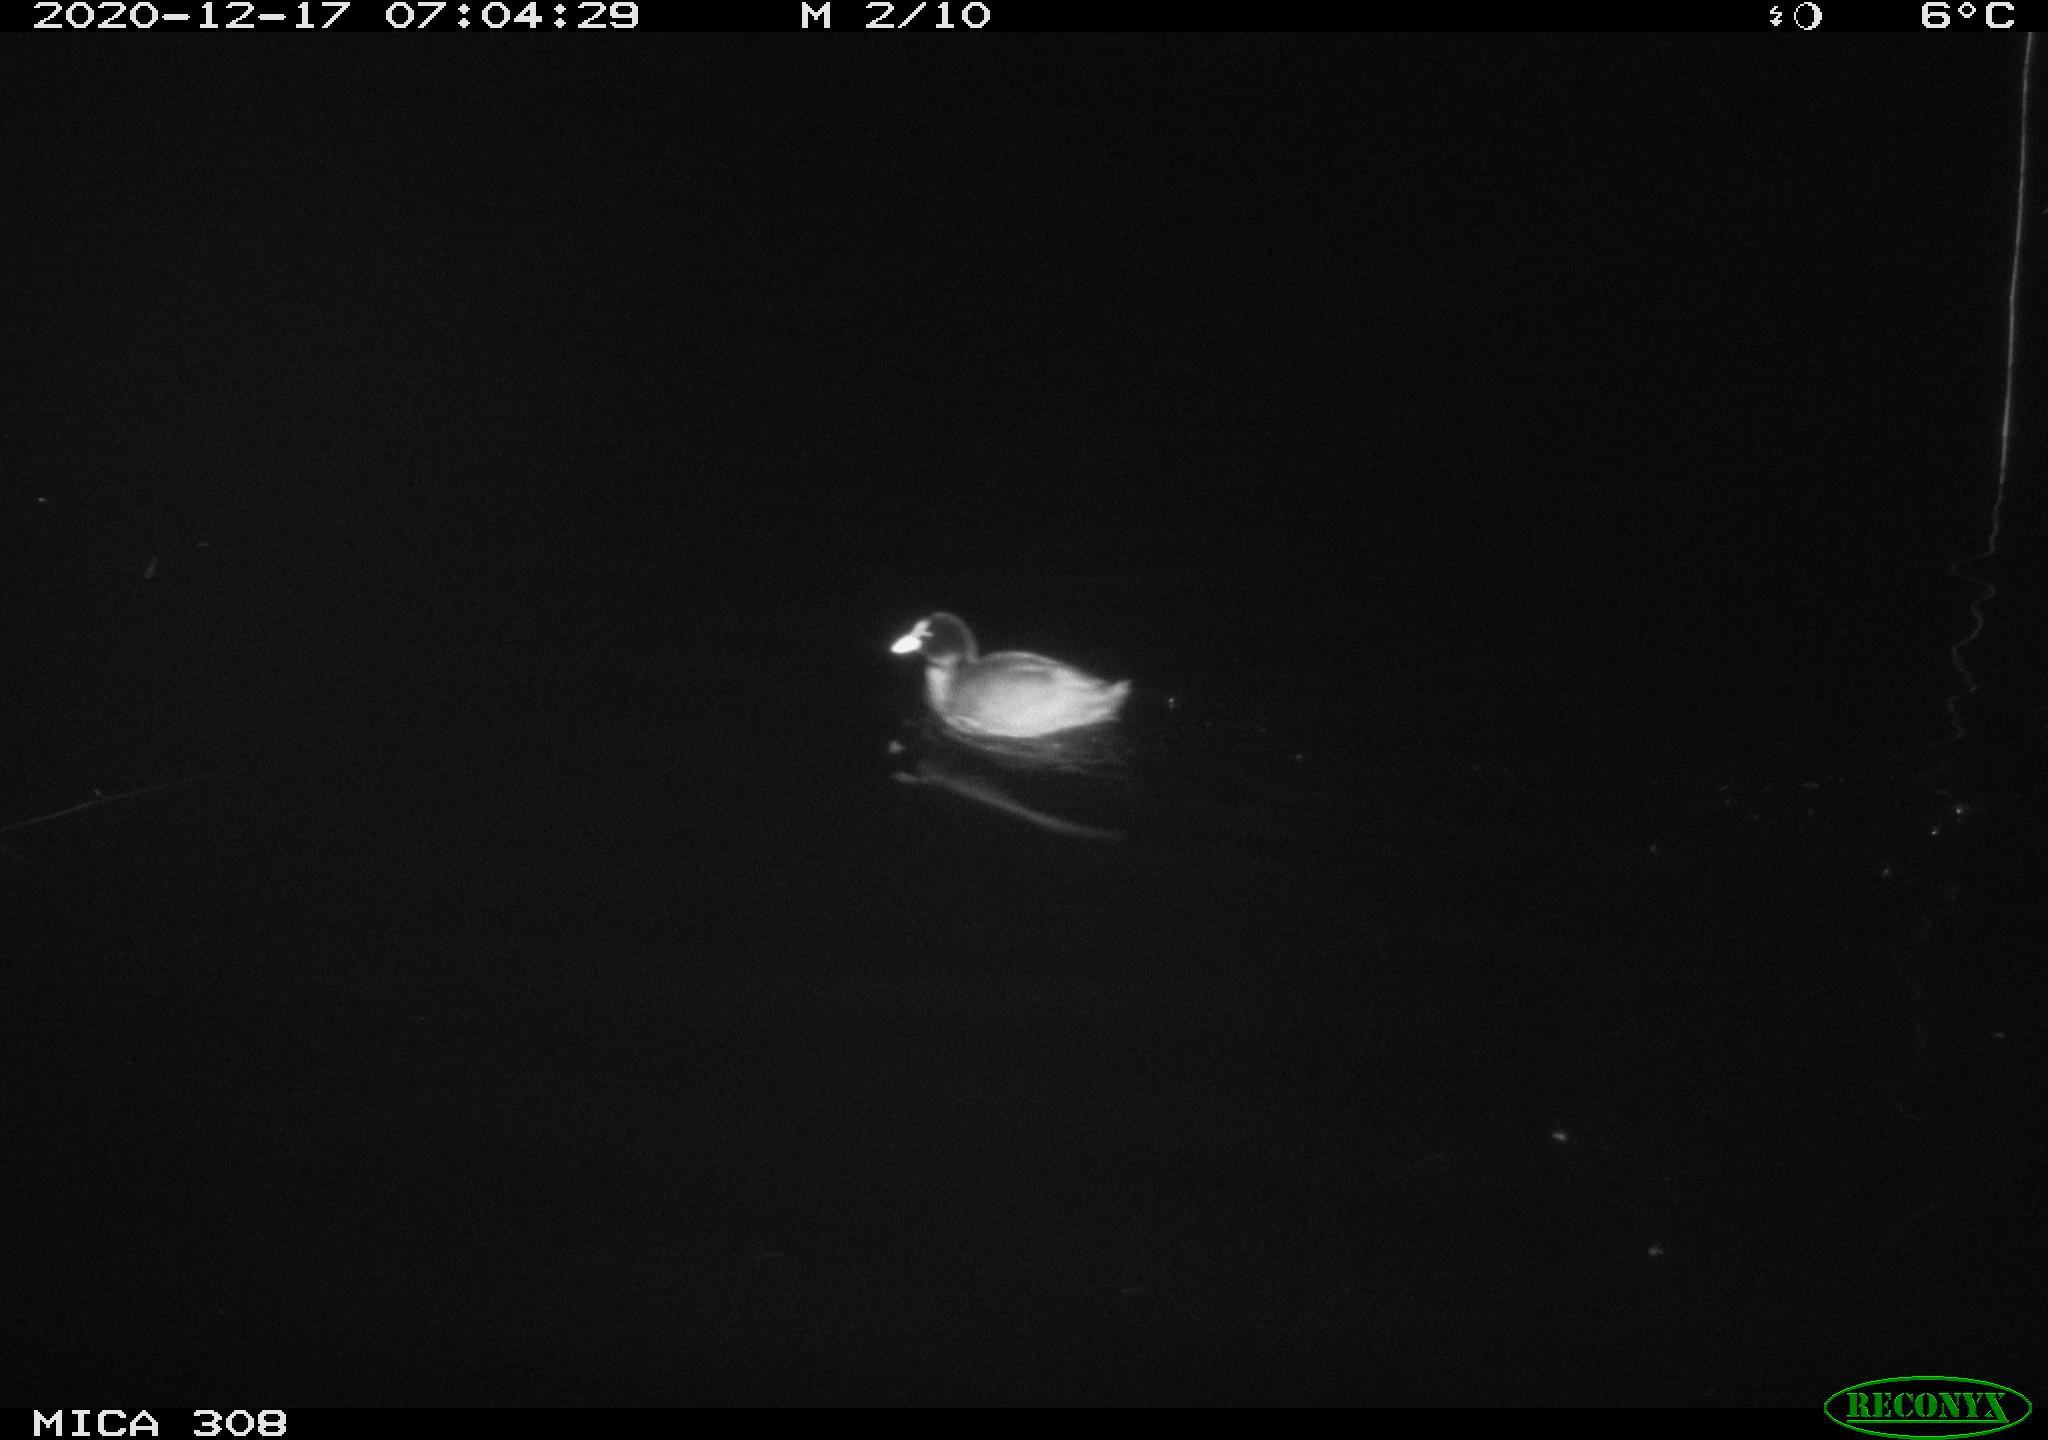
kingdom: Animalia
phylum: Chordata
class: Aves
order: Gruiformes
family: Rallidae
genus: Fulica
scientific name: Fulica atra
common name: Eurasian coot
